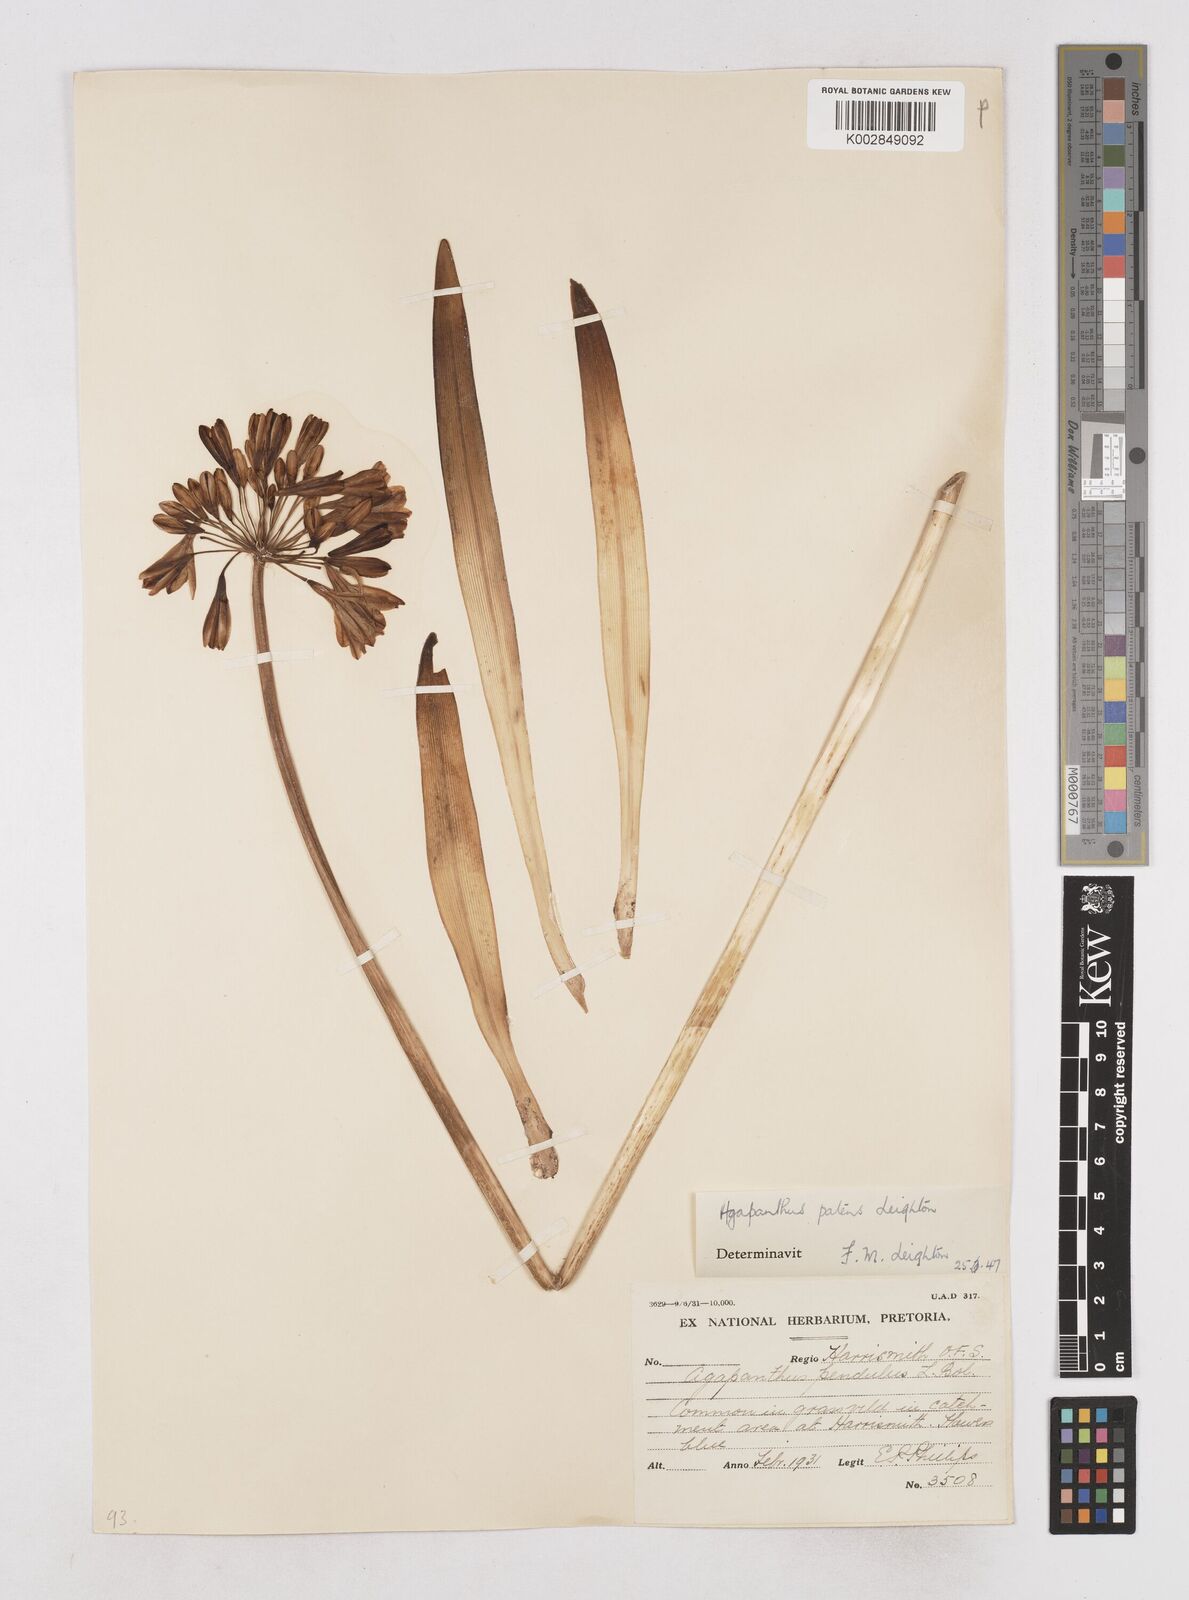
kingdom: Plantae
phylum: Tracheophyta
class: Liliopsida
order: Asparagales
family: Amaryllidaceae
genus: Agapanthus
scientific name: Agapanthus campanulatus
